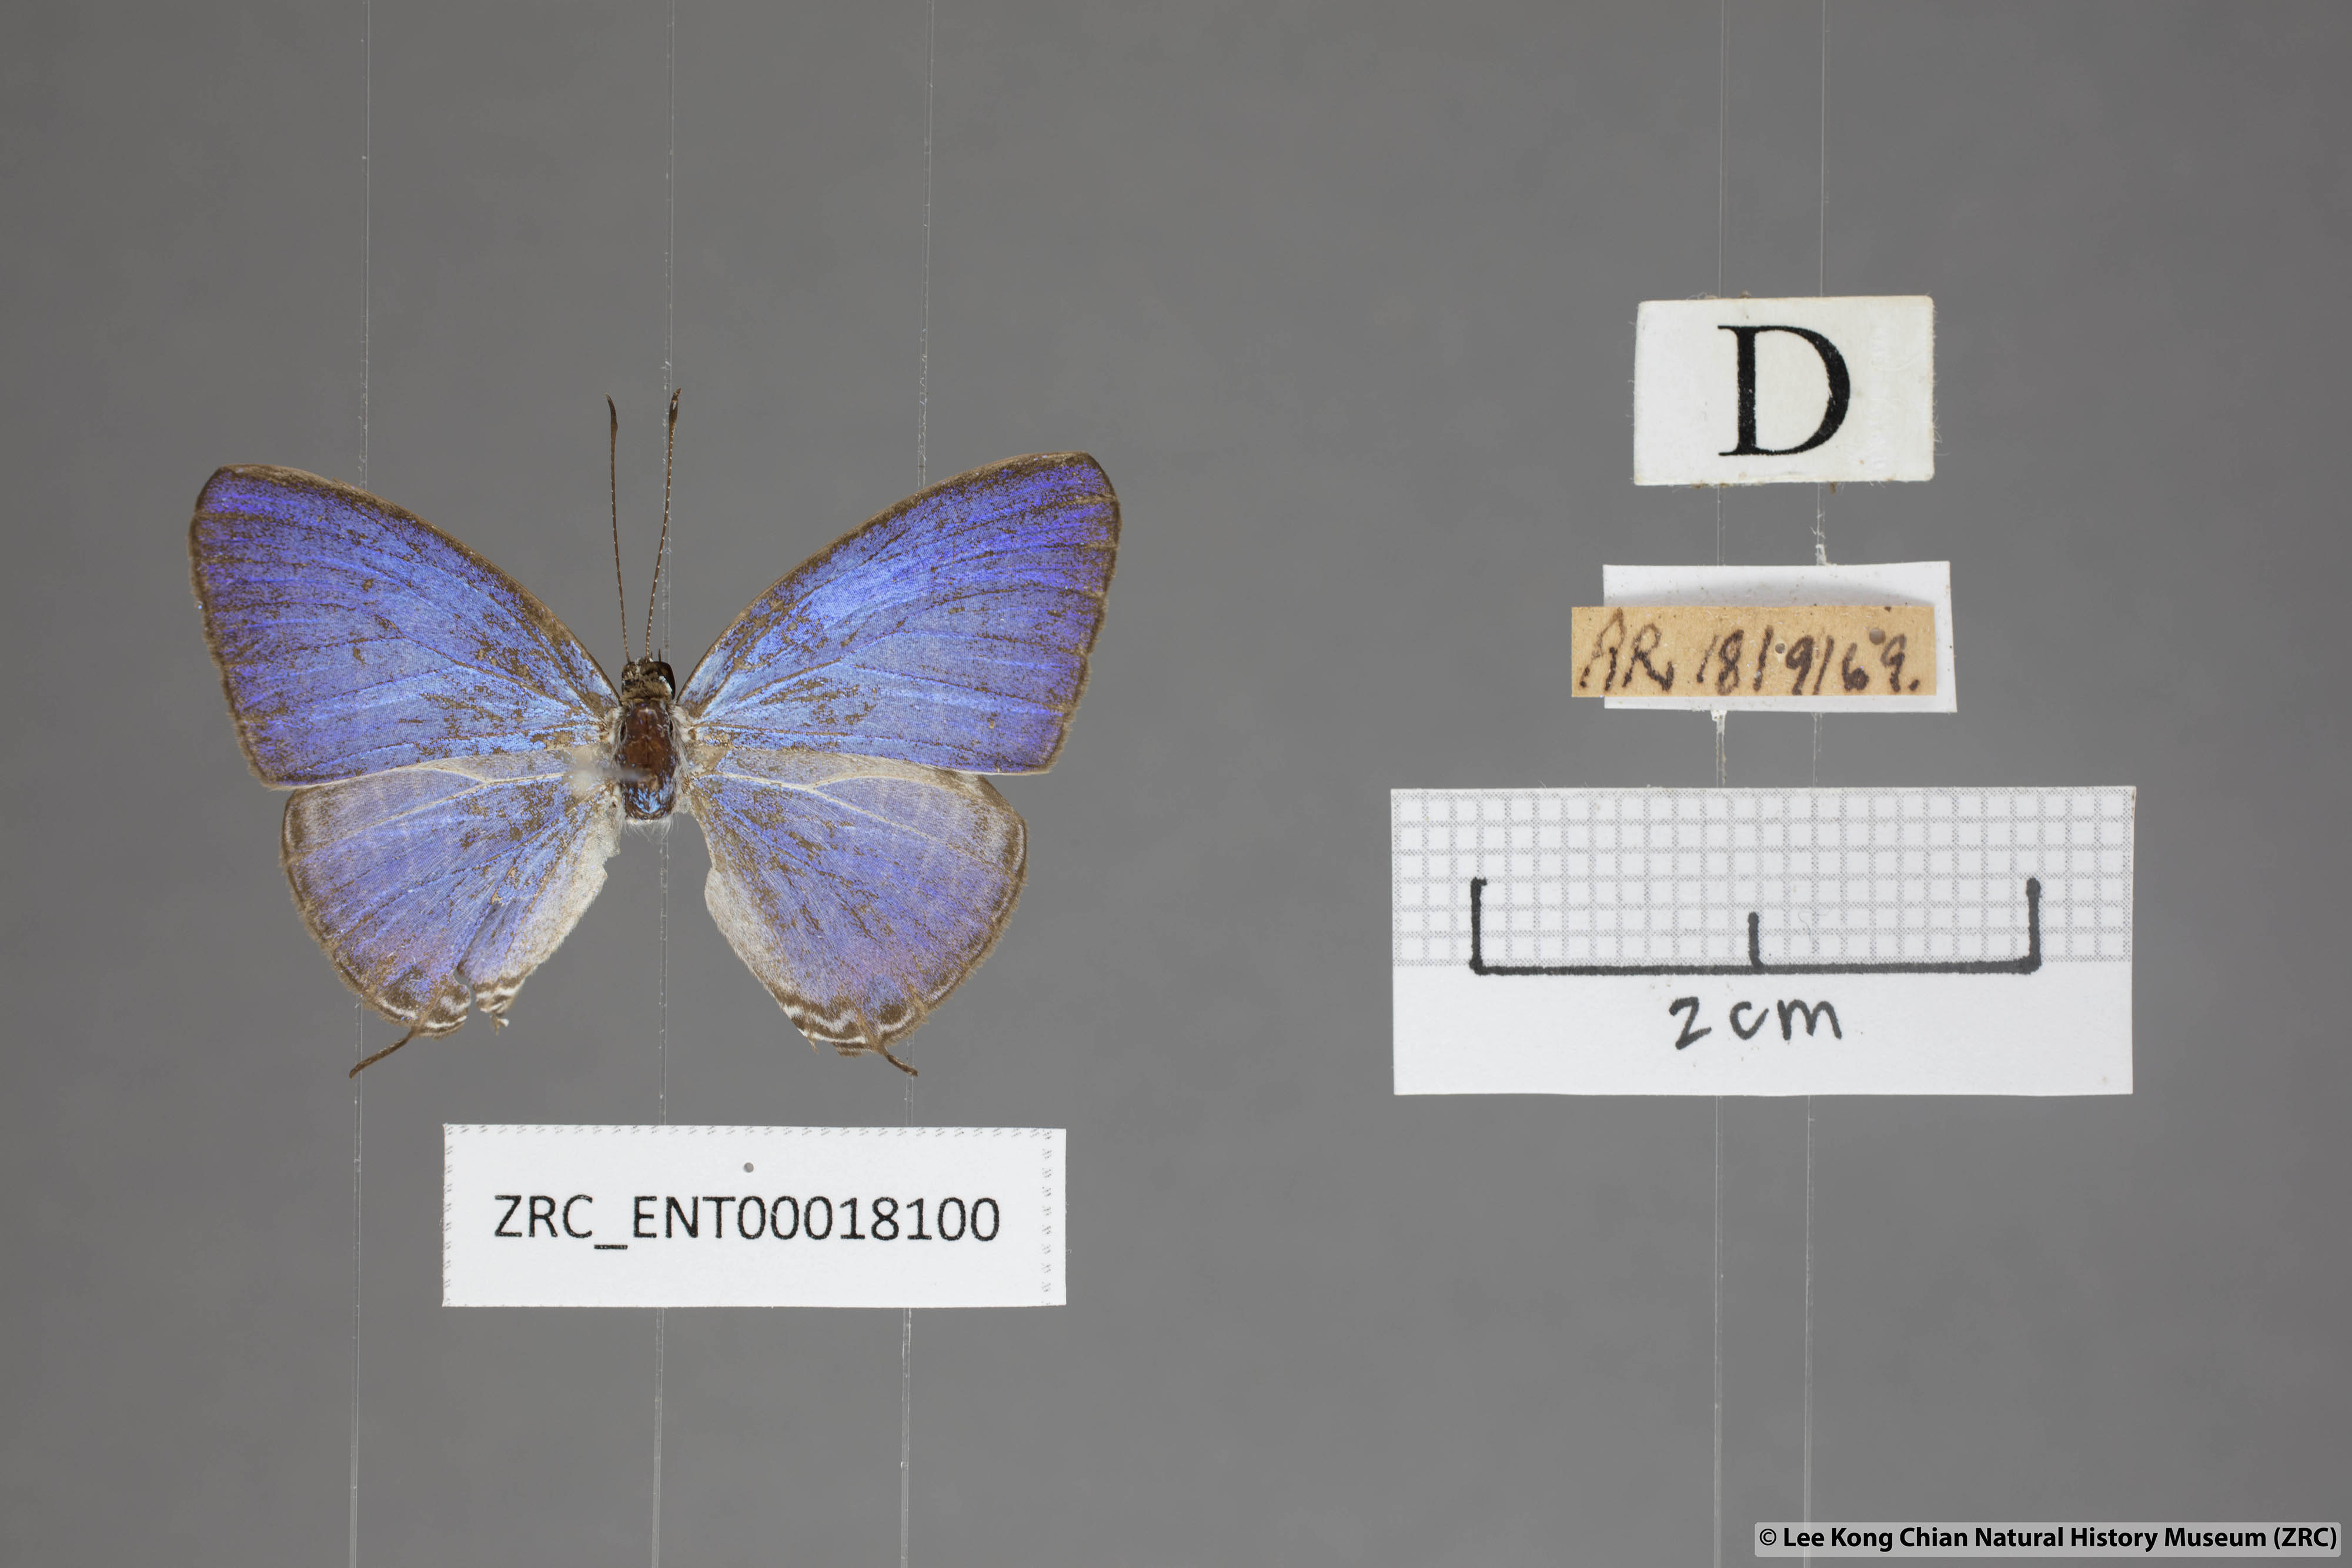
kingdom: Animalia
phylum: Arthropoda
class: Insecta
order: Lepidoptera
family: Lycaenidae
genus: Jamides
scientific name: Jamides
